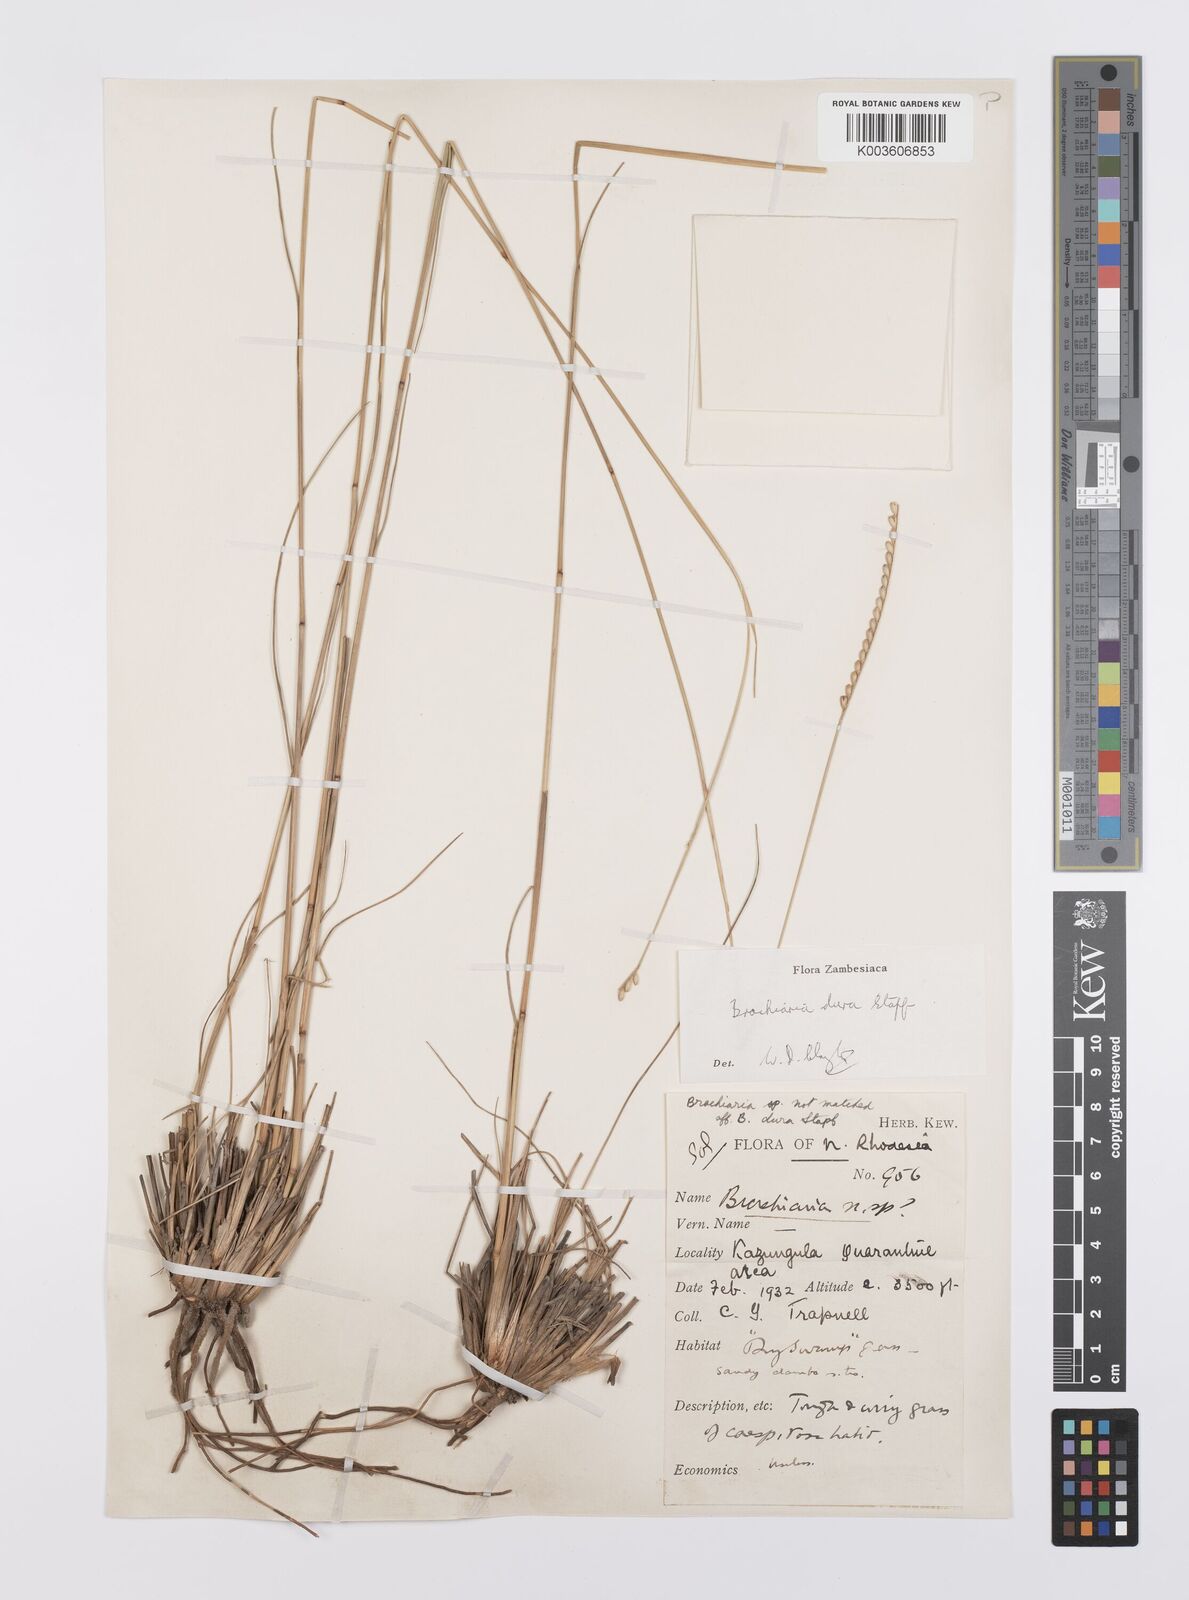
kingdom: Plantae
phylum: Tracheophyta
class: Liliopsida
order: Poales
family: Poaceae
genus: Urochloa
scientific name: Urochloa dura
